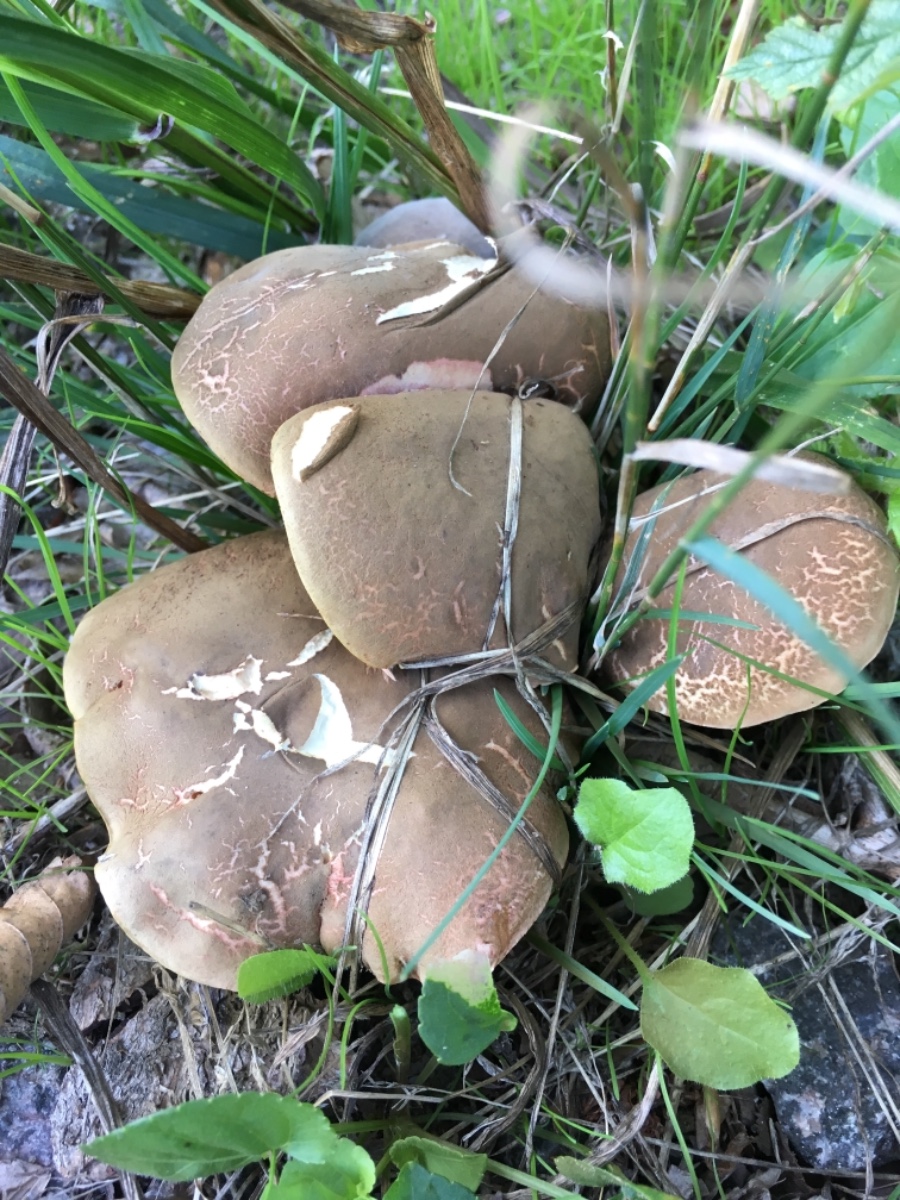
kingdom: Fungi
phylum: Basidiomycota
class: Agaricomycetes
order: Boletales
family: Boletaceae
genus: Xerocomellus
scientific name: Xerocomellus cisalpinus
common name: finsprukken rørhat
